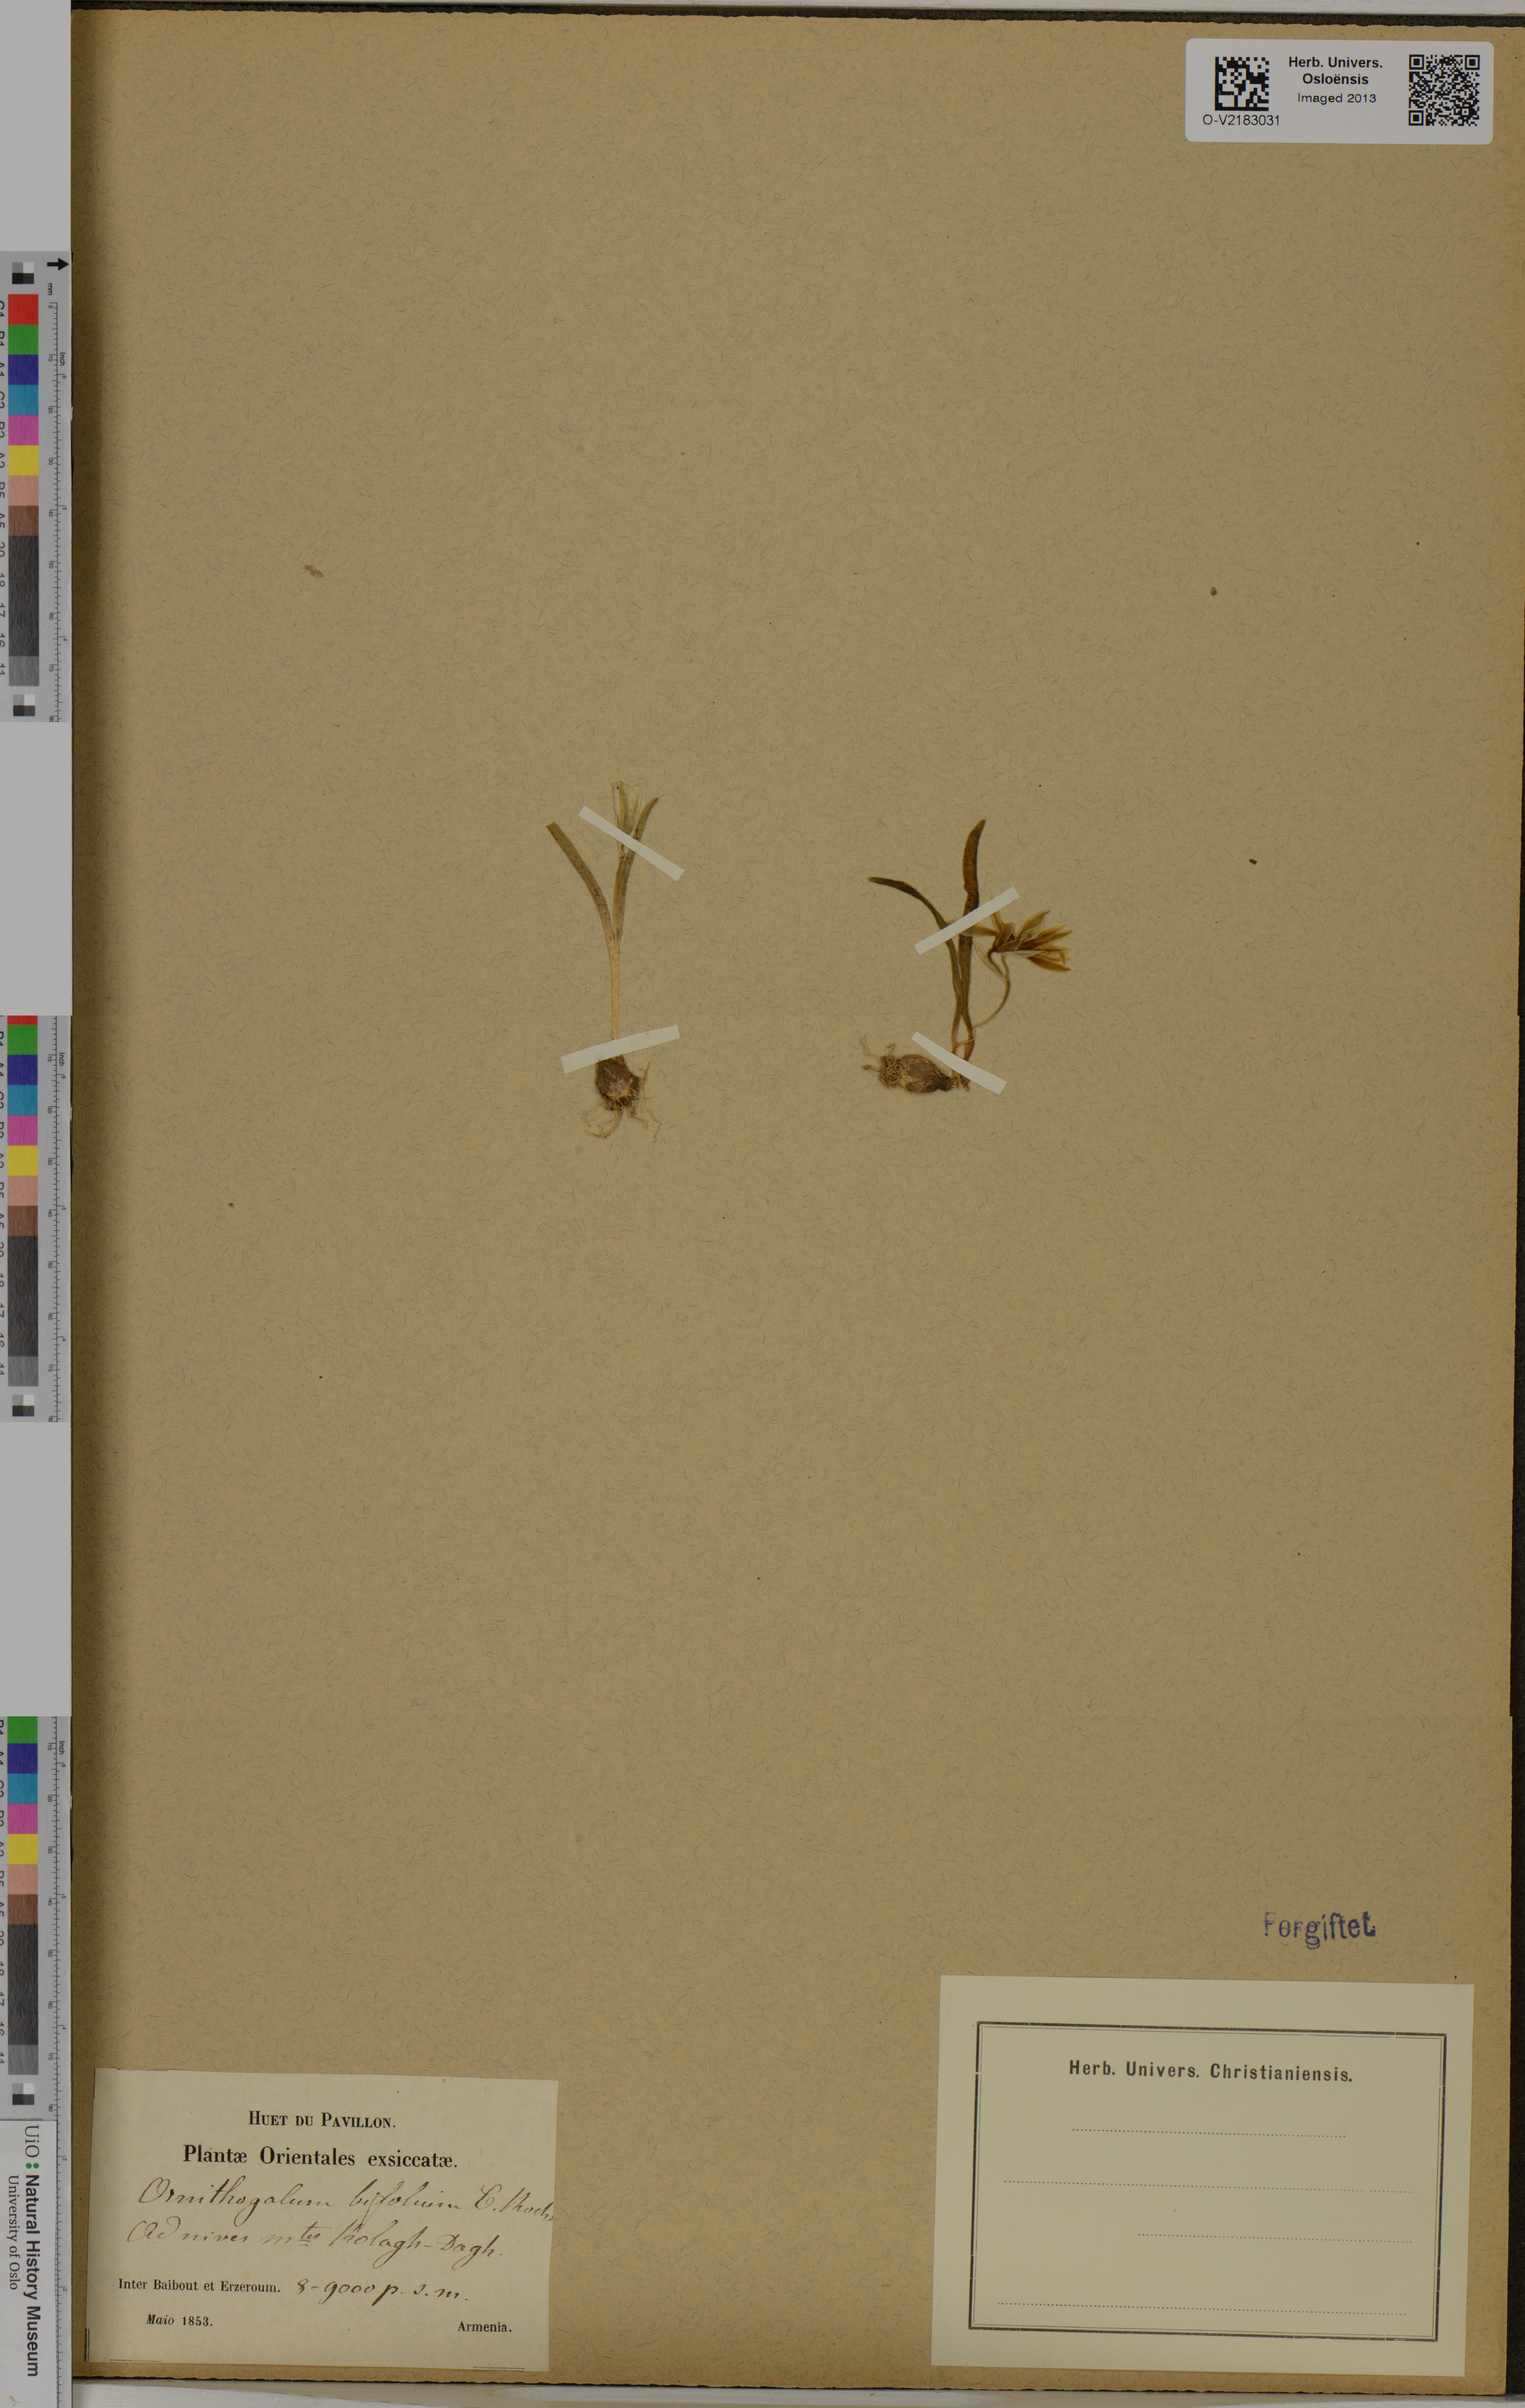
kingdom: Plantae
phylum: Tracheophyta
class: Liliopsida
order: Asparagales
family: Asparagaceae
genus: Ornithogalum
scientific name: Ornithogalum oligophyllum
